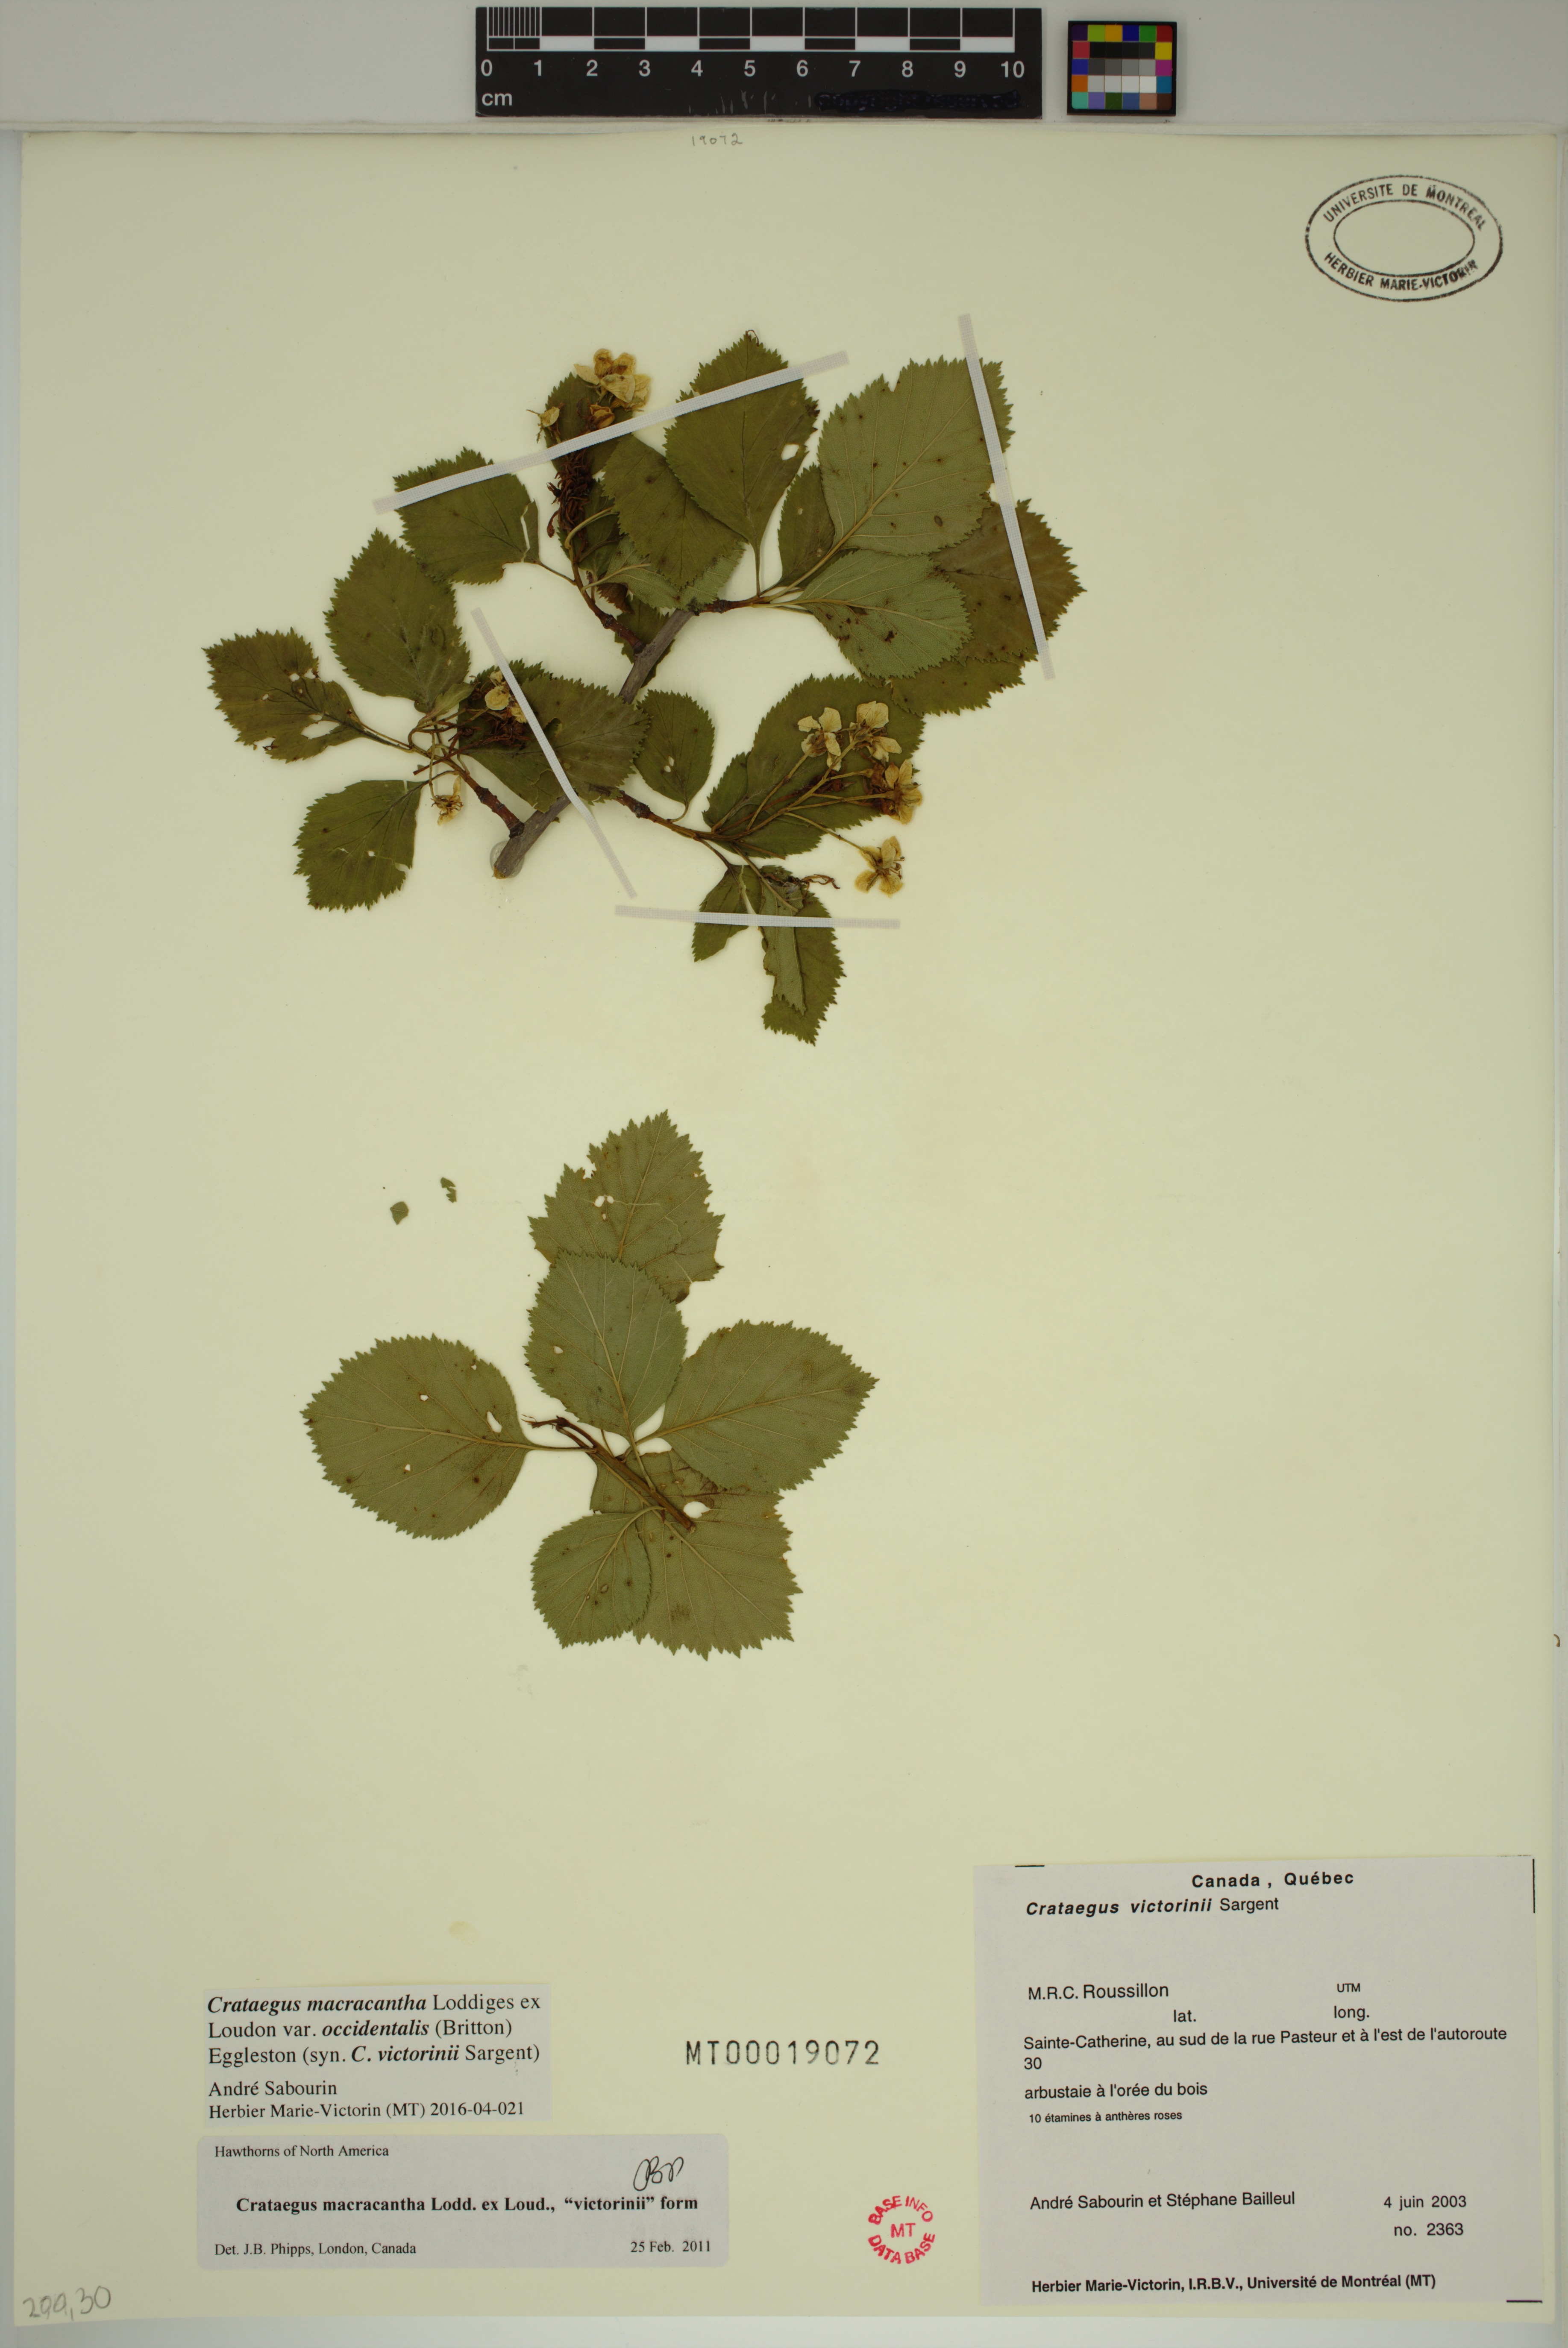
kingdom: Plantae
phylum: Tracheophyta
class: Magnoliopsida
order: Rosales
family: Rosaceae
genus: Crataegus
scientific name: Crataegus macracantha
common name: Large-thorn hawthorn
